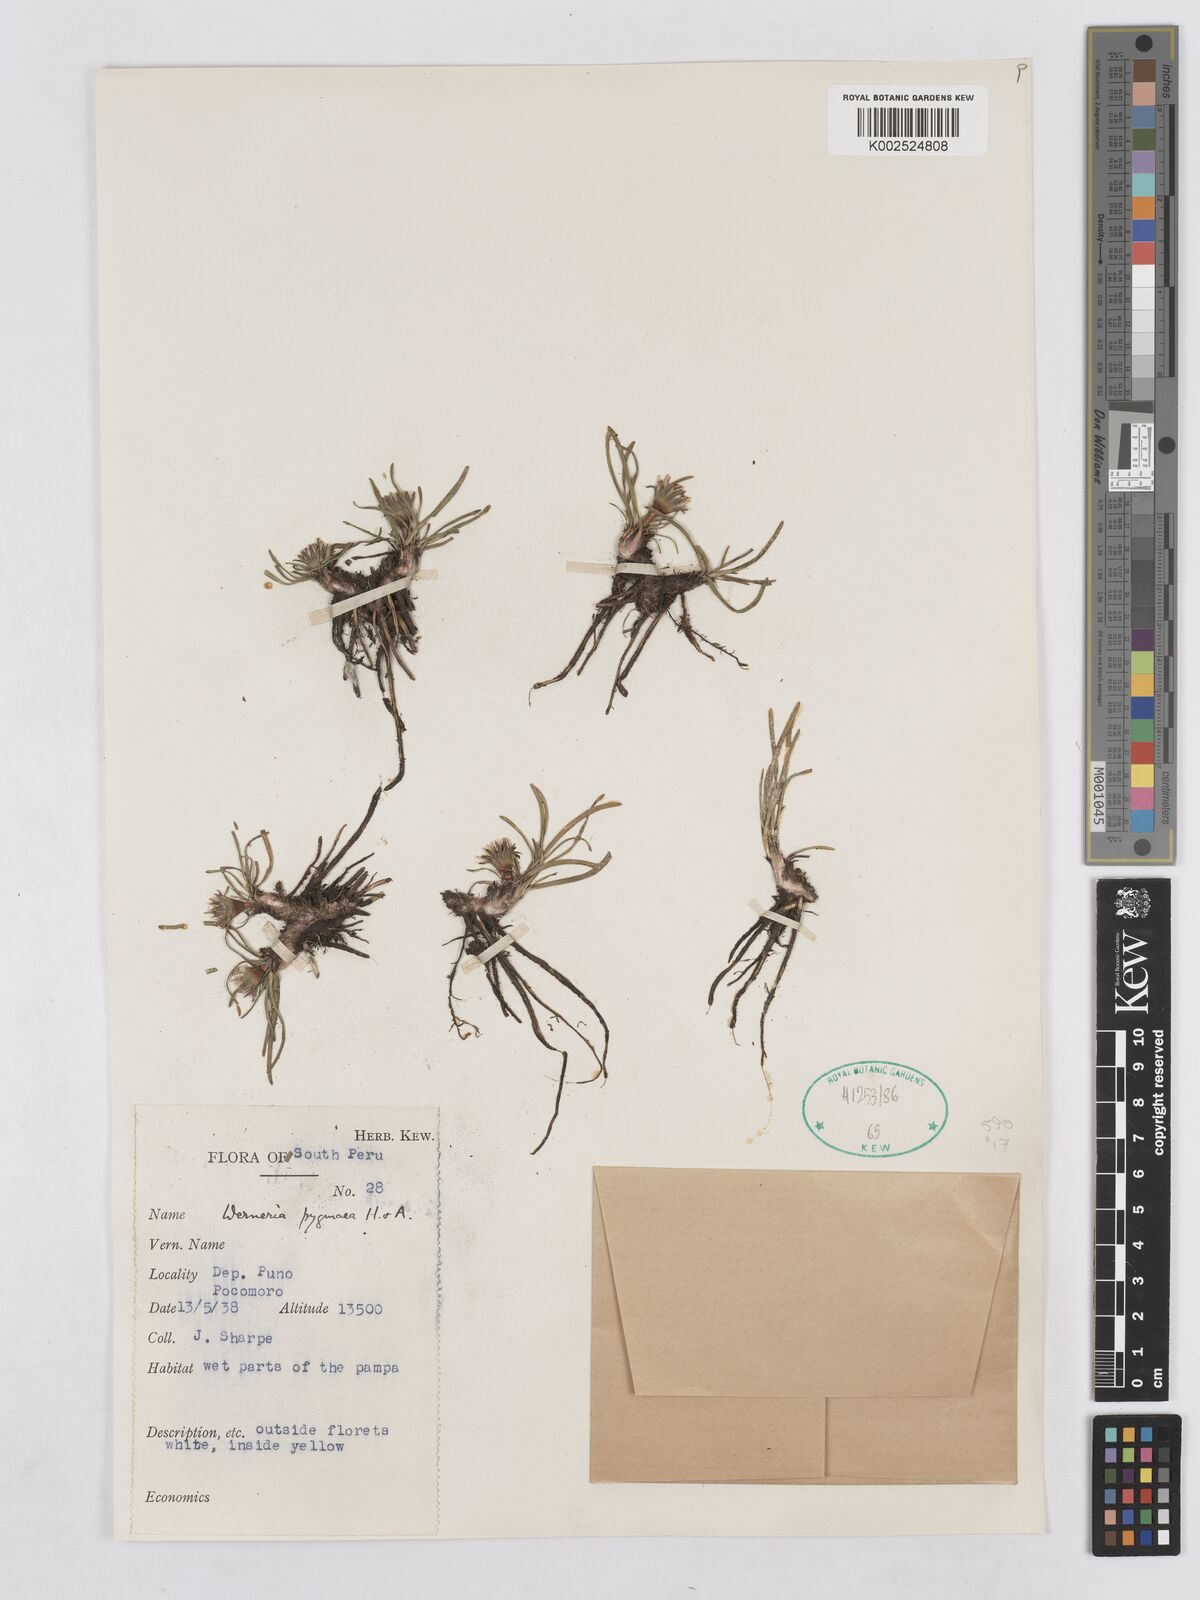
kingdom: Plantae
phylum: Tracheophyta
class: Magnoliopsida
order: Asterales
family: Asteraceae
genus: Rockhausenia
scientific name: Rockhausenia pygmaea
